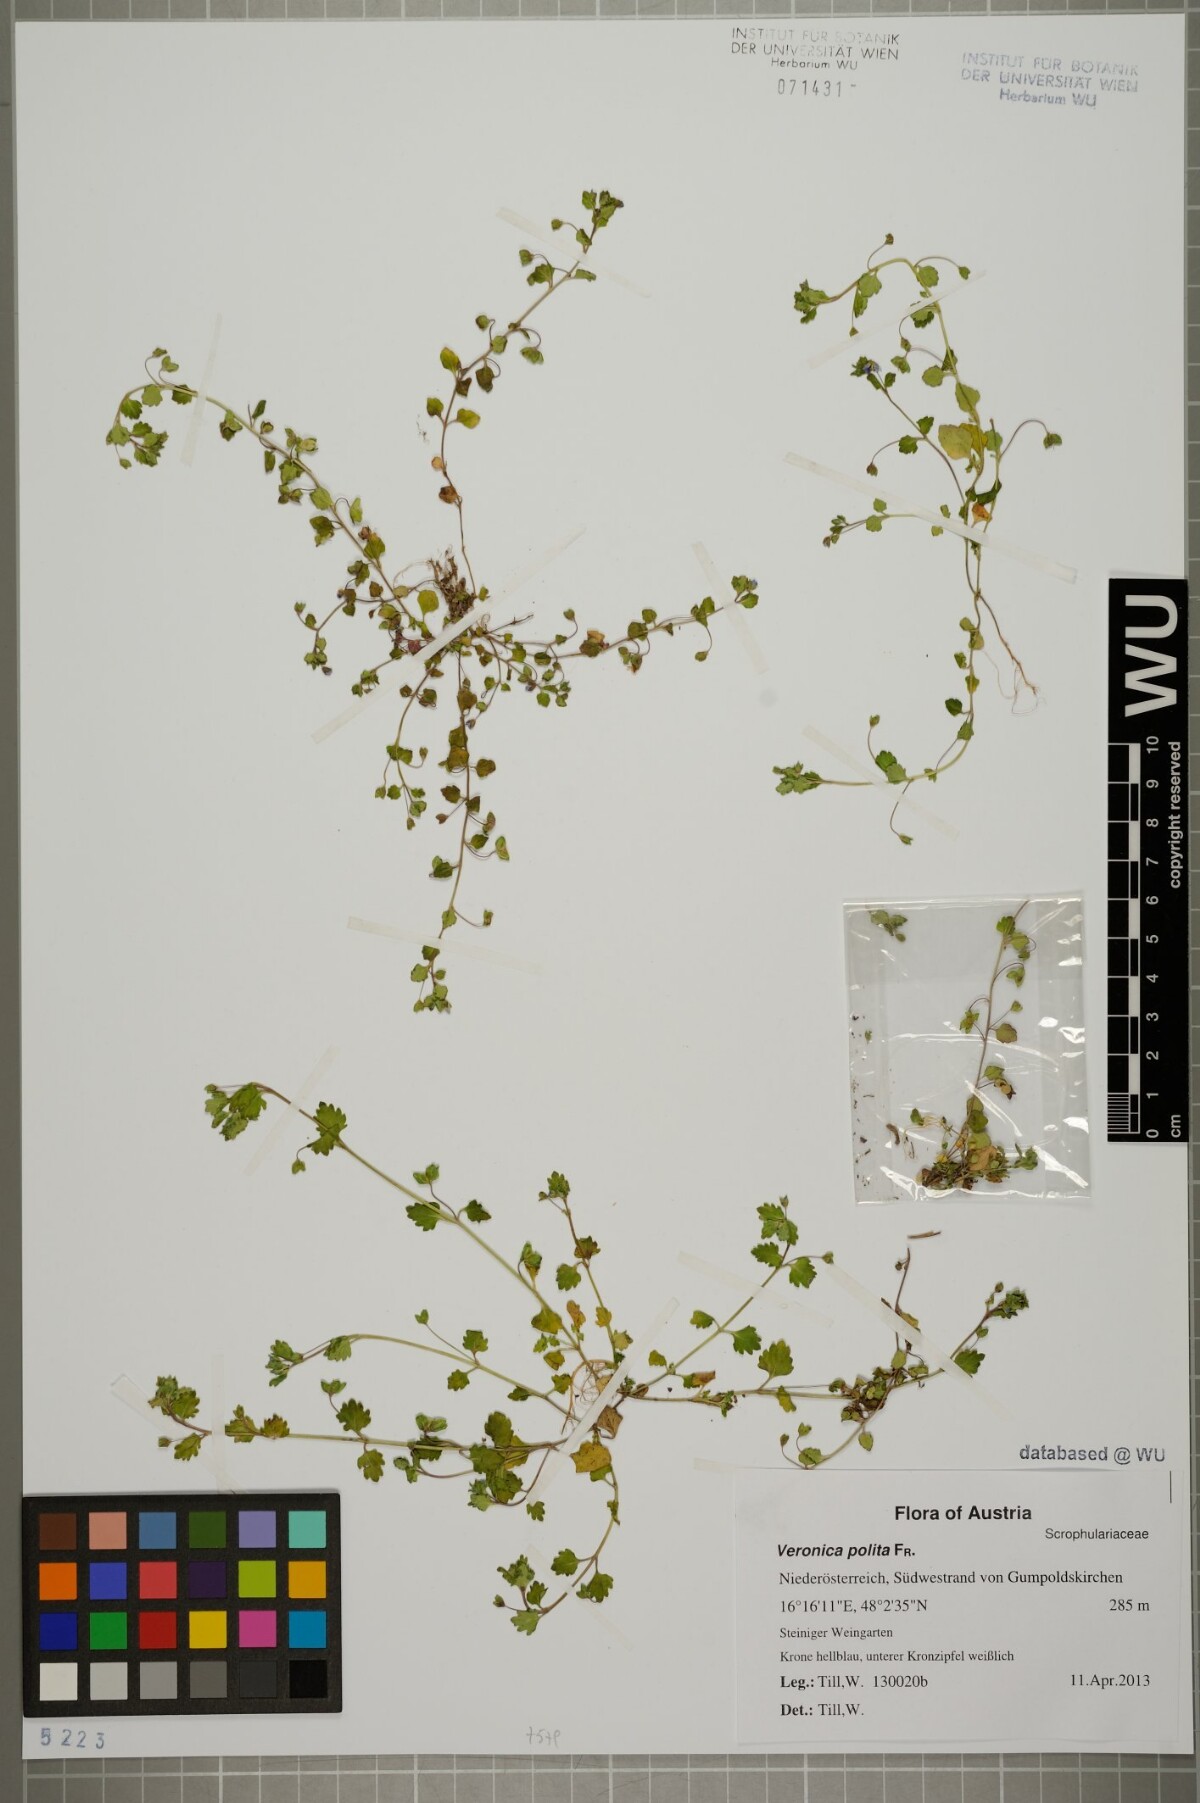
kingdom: Plantae
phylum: Tracheophyta
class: Magnoliopsida
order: Lamiales
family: Plantaginaceae
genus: Veronica
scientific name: Veronica polita
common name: Grey field-speedwell
